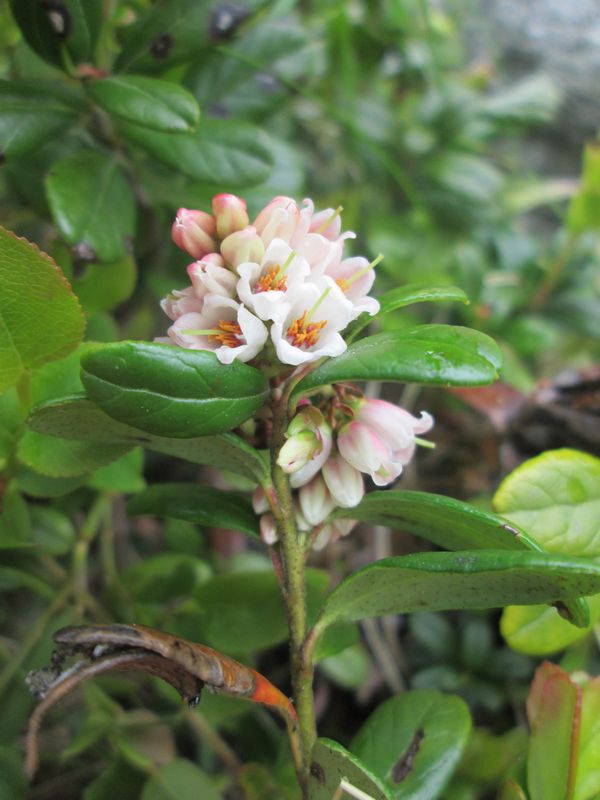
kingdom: Plantae
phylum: Tracheophyta
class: Magnoliopsida
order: Ericales
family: Ericaceae
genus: Vaccinium
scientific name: Vaccinium vitis-idaea
